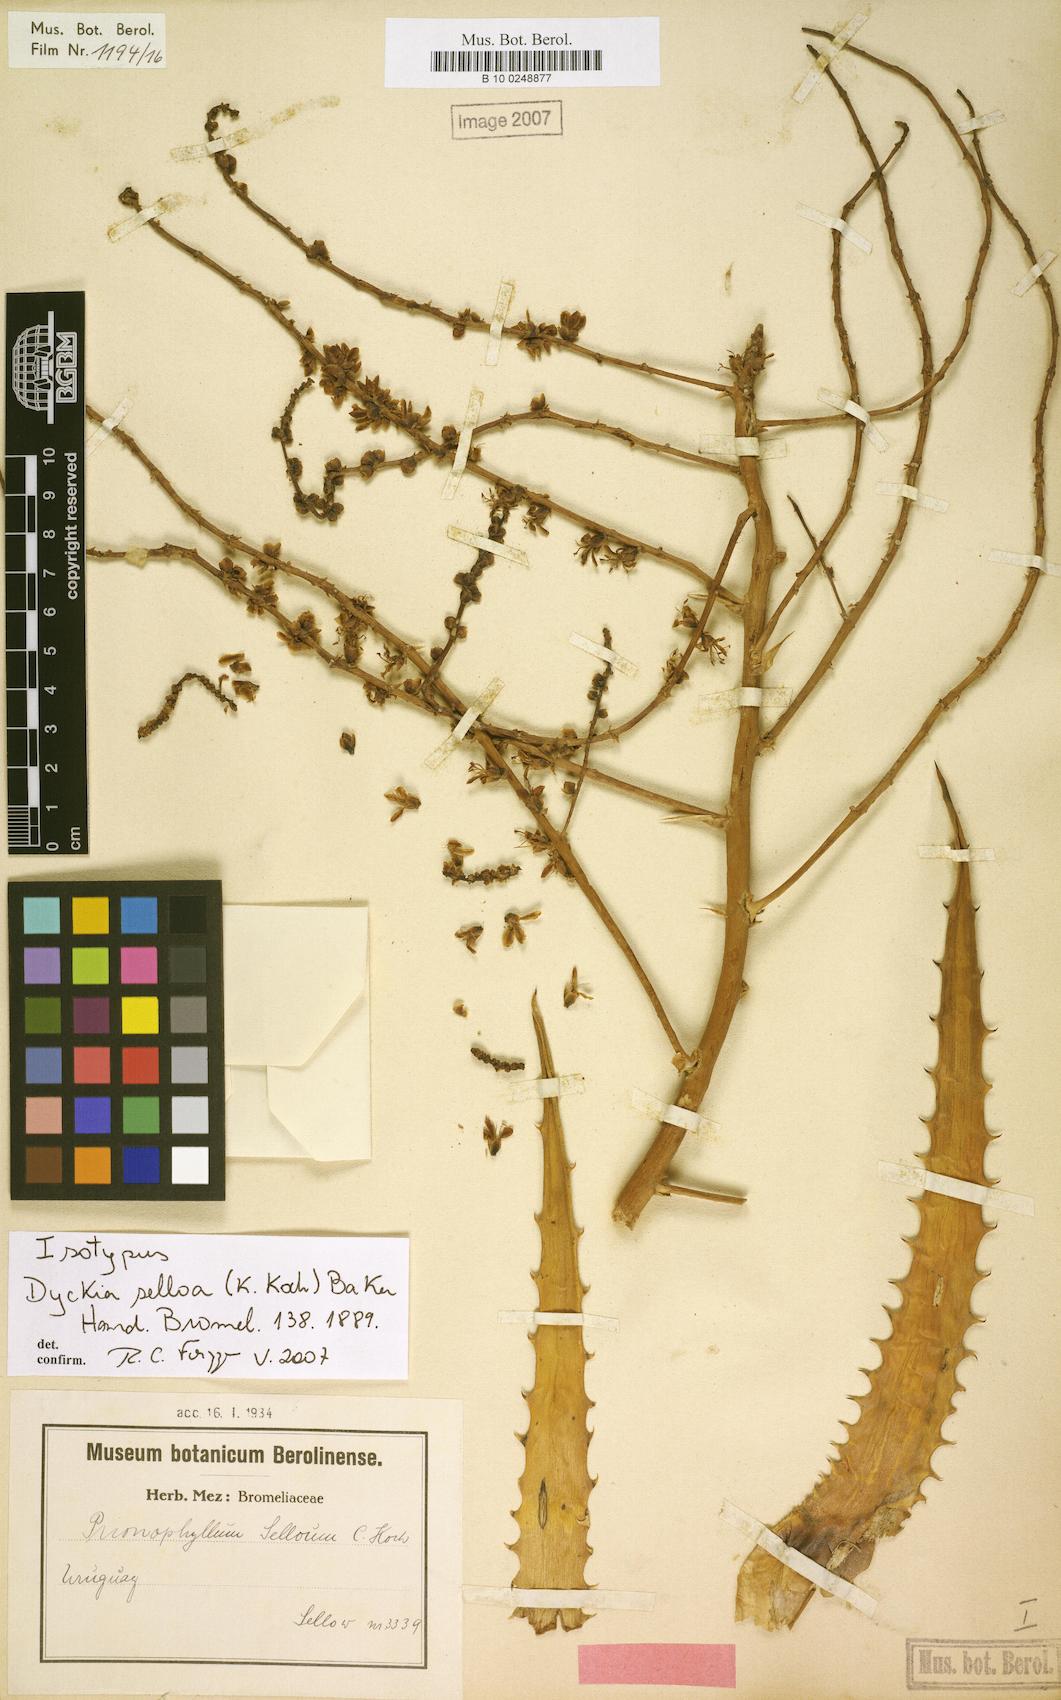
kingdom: Plantae
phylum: Tracheophyta
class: Liliopsida
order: Poales
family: Bromeliaceae
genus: Dyckia
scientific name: Dyckia selloa
